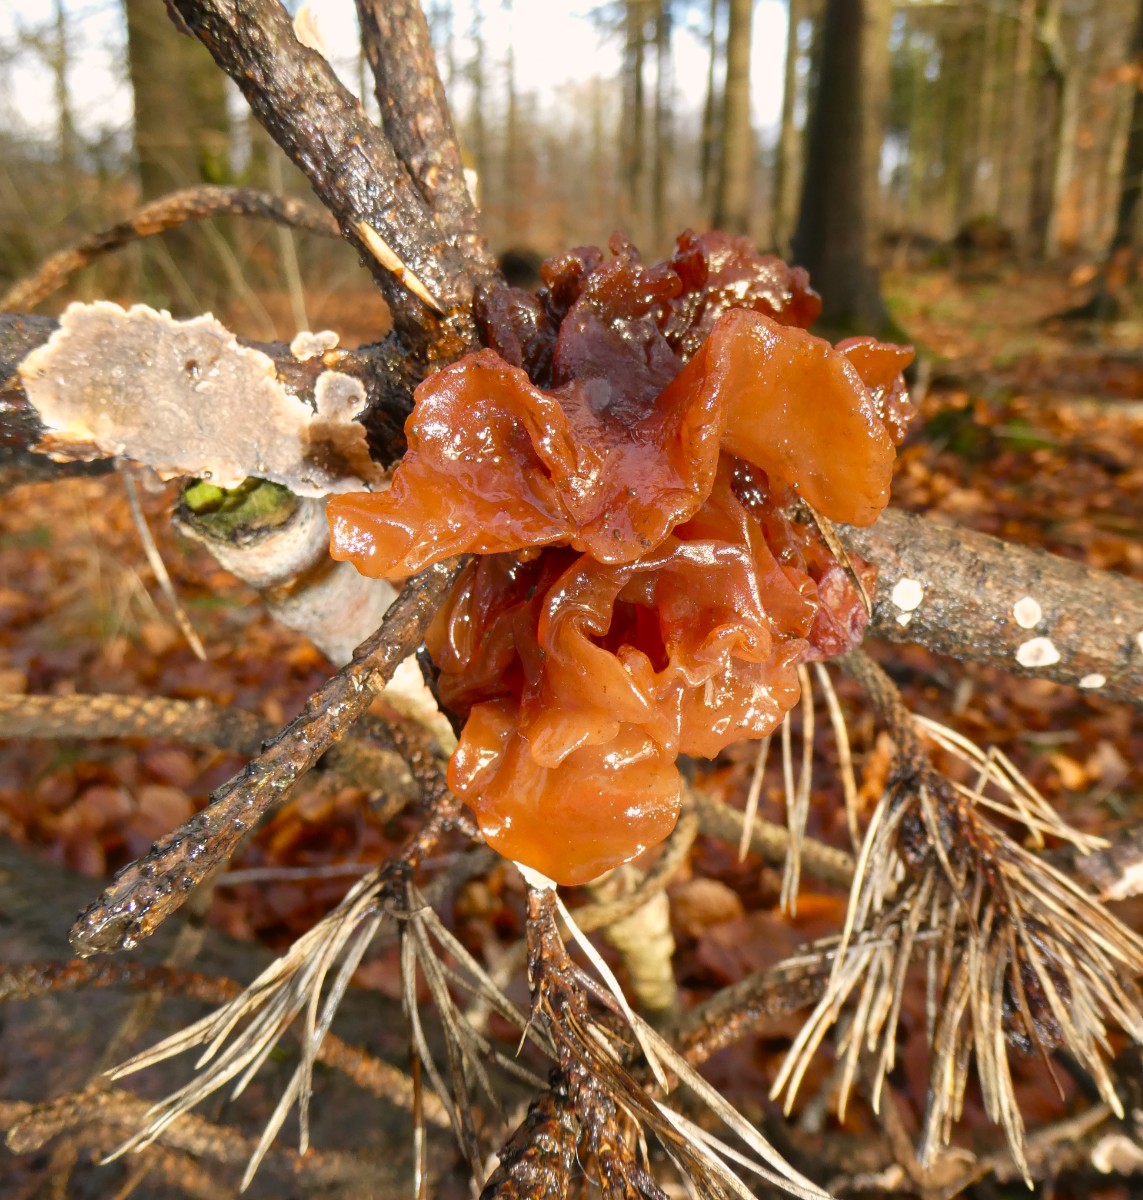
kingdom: Fungi
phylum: Basidiomycota
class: Tremellomycetes
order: Tremellales
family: Tremellaceae
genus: Phaeotremella
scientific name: Phaeotremella foliacea
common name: brun bævresvamp
